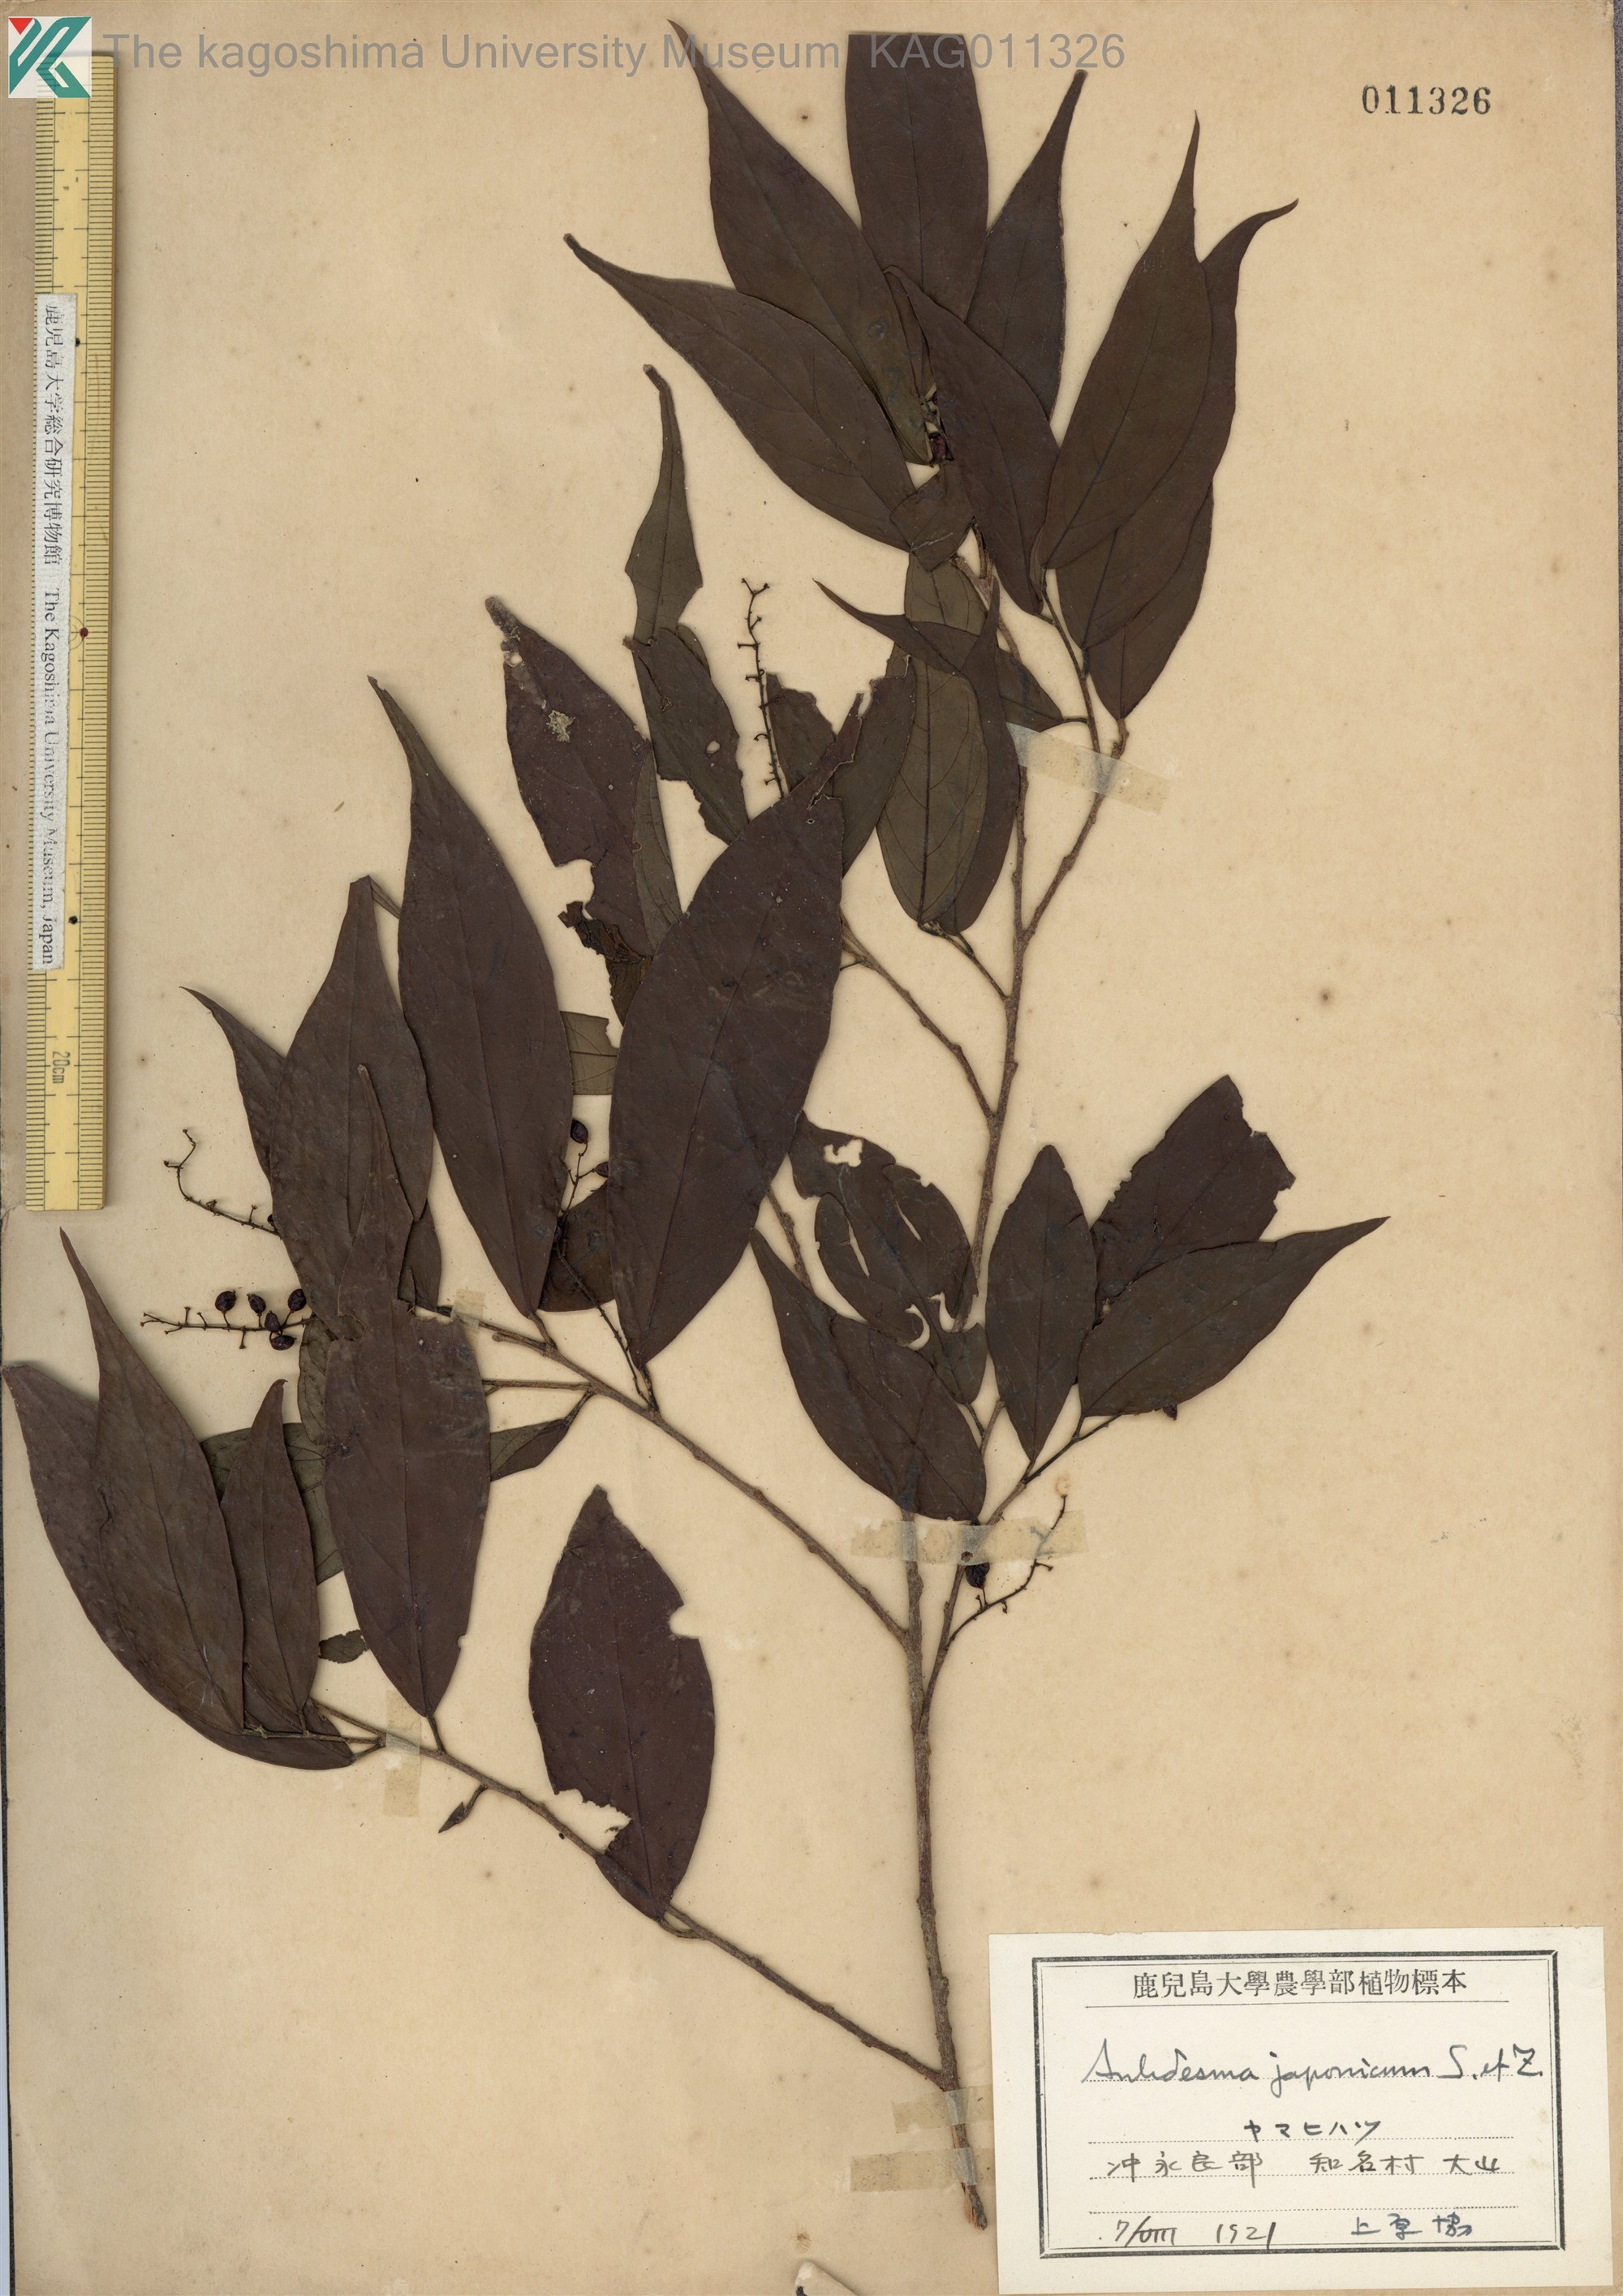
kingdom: Plantae
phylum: Tracheophyta
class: Magnoliopsida
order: Malpighiales
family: Phyllanthaceae
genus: Antidesma
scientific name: Antidesma japonicum
